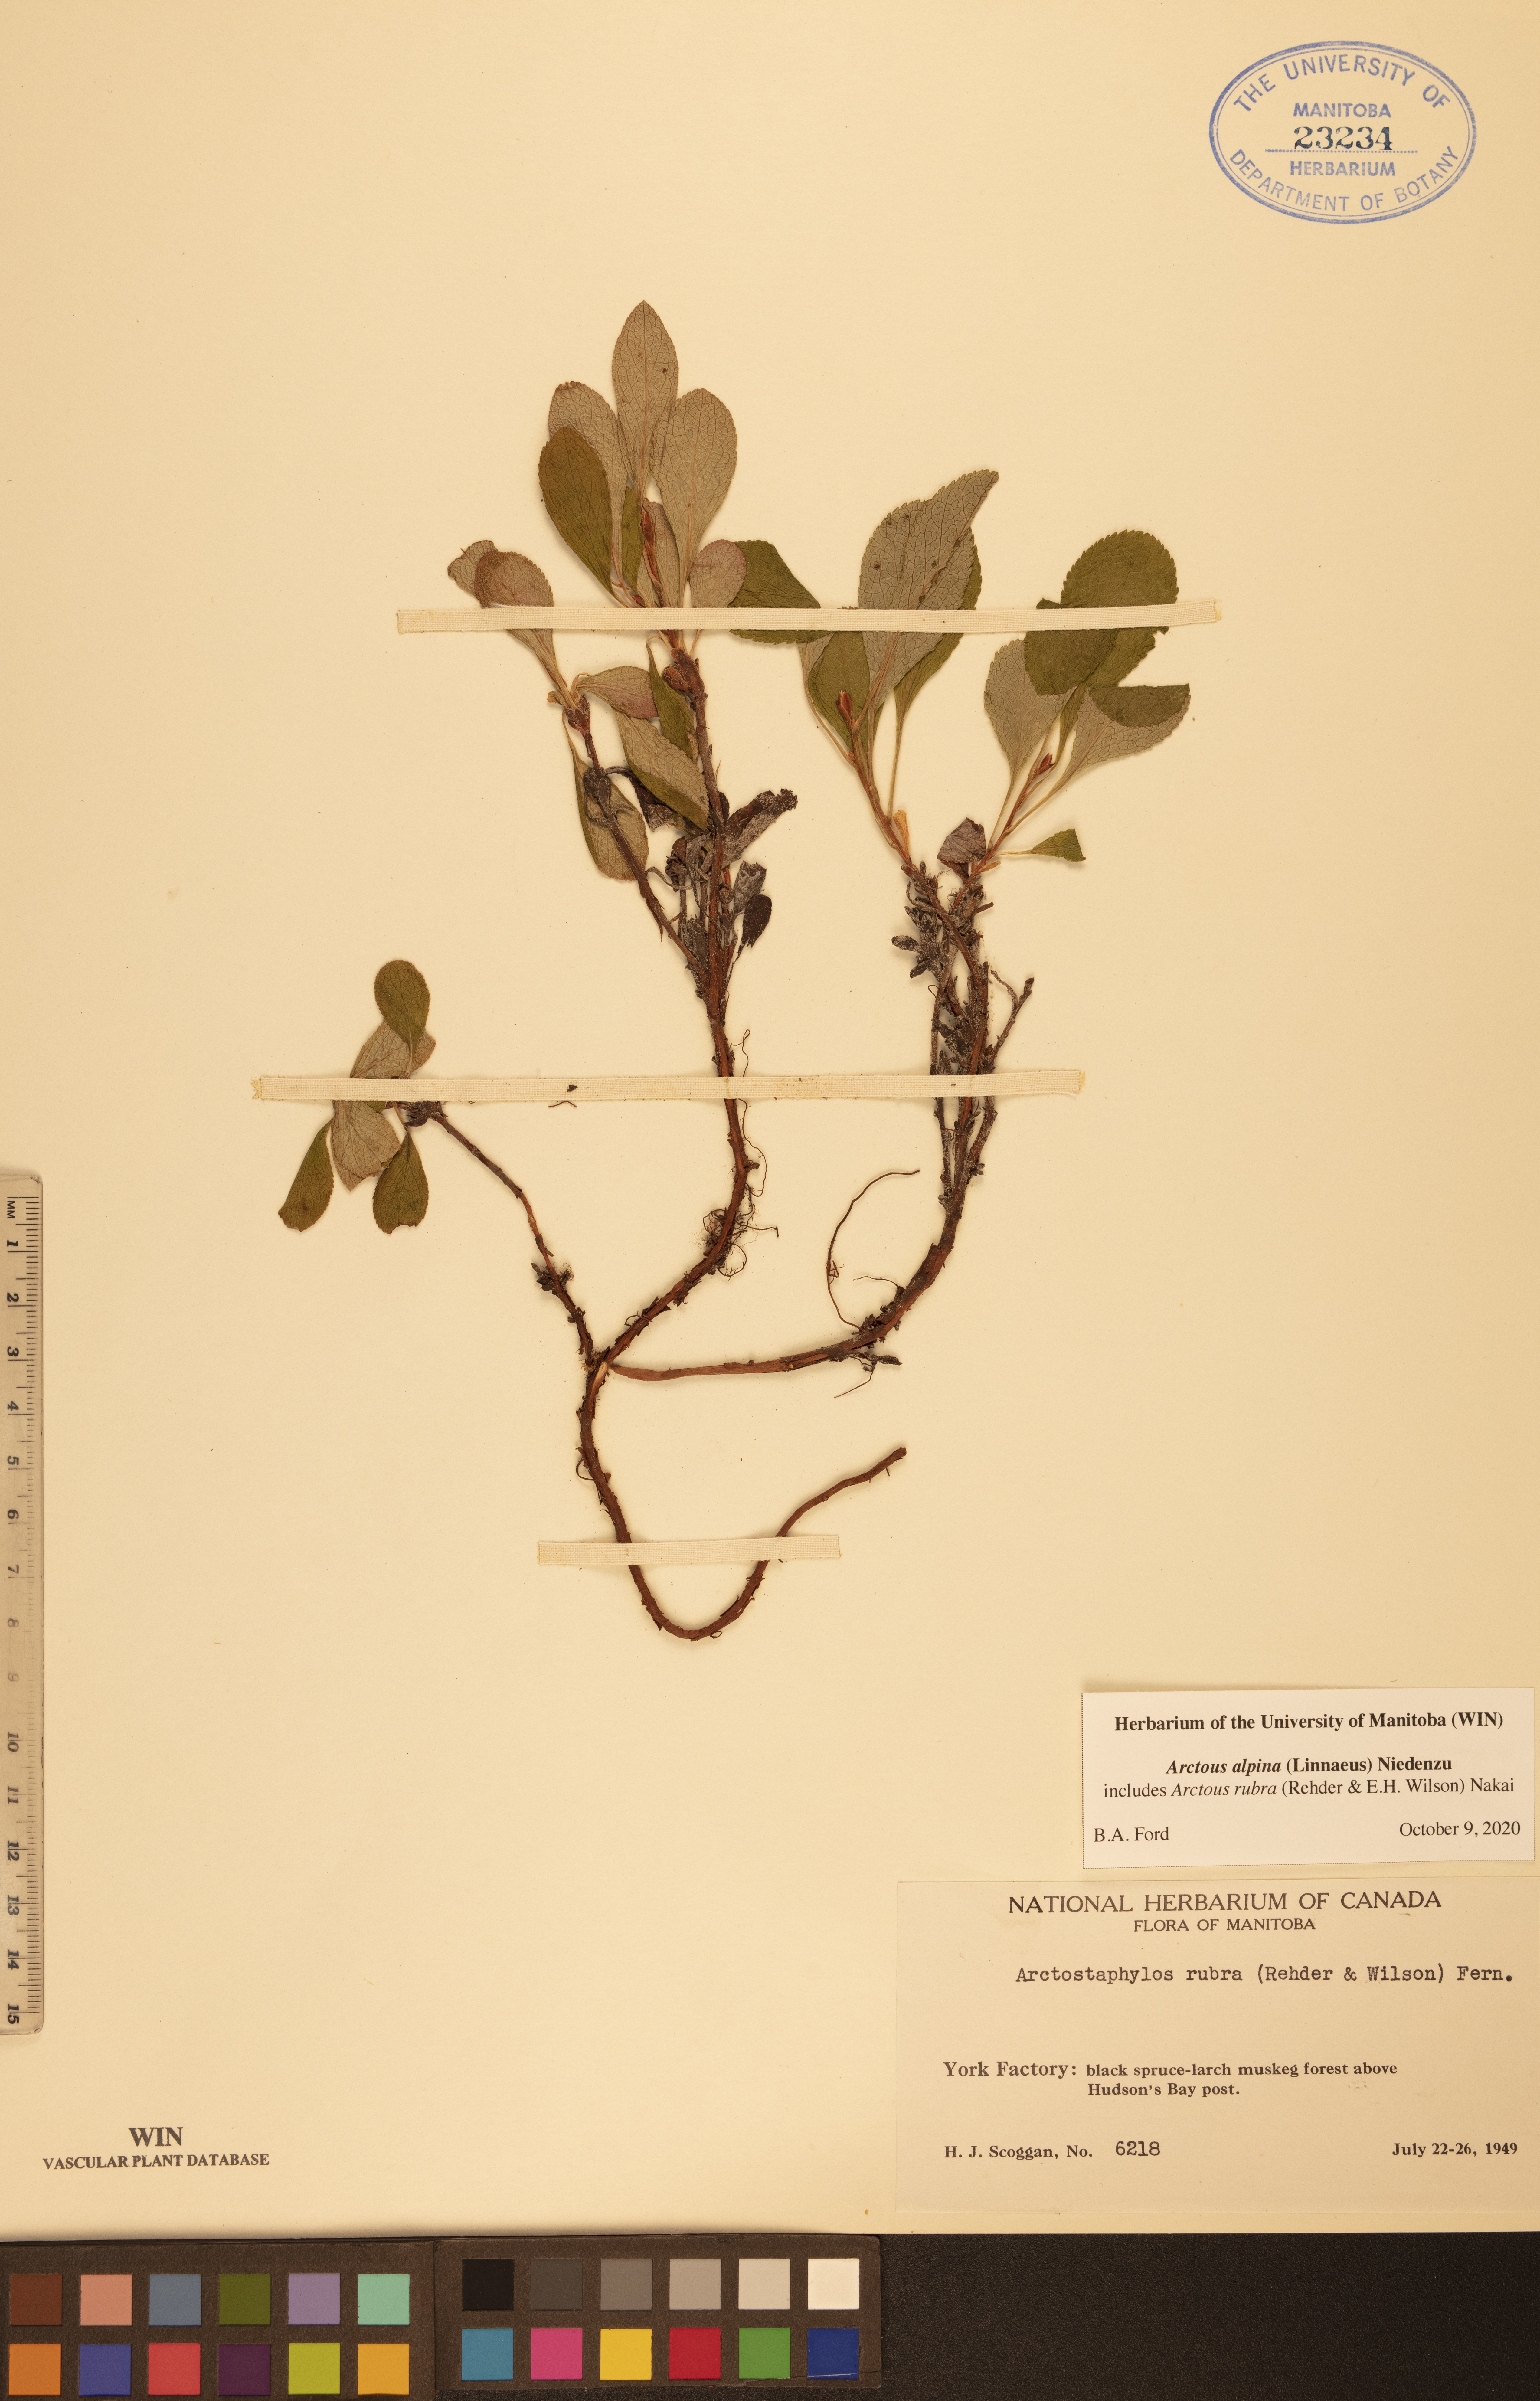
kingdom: Plantae
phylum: Tracheophyta
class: Magnoliopsida
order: Ericales
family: Ericaceae
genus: Arctostaphylos
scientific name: Arctostaphylos alpinus
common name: Alpine bearberry
